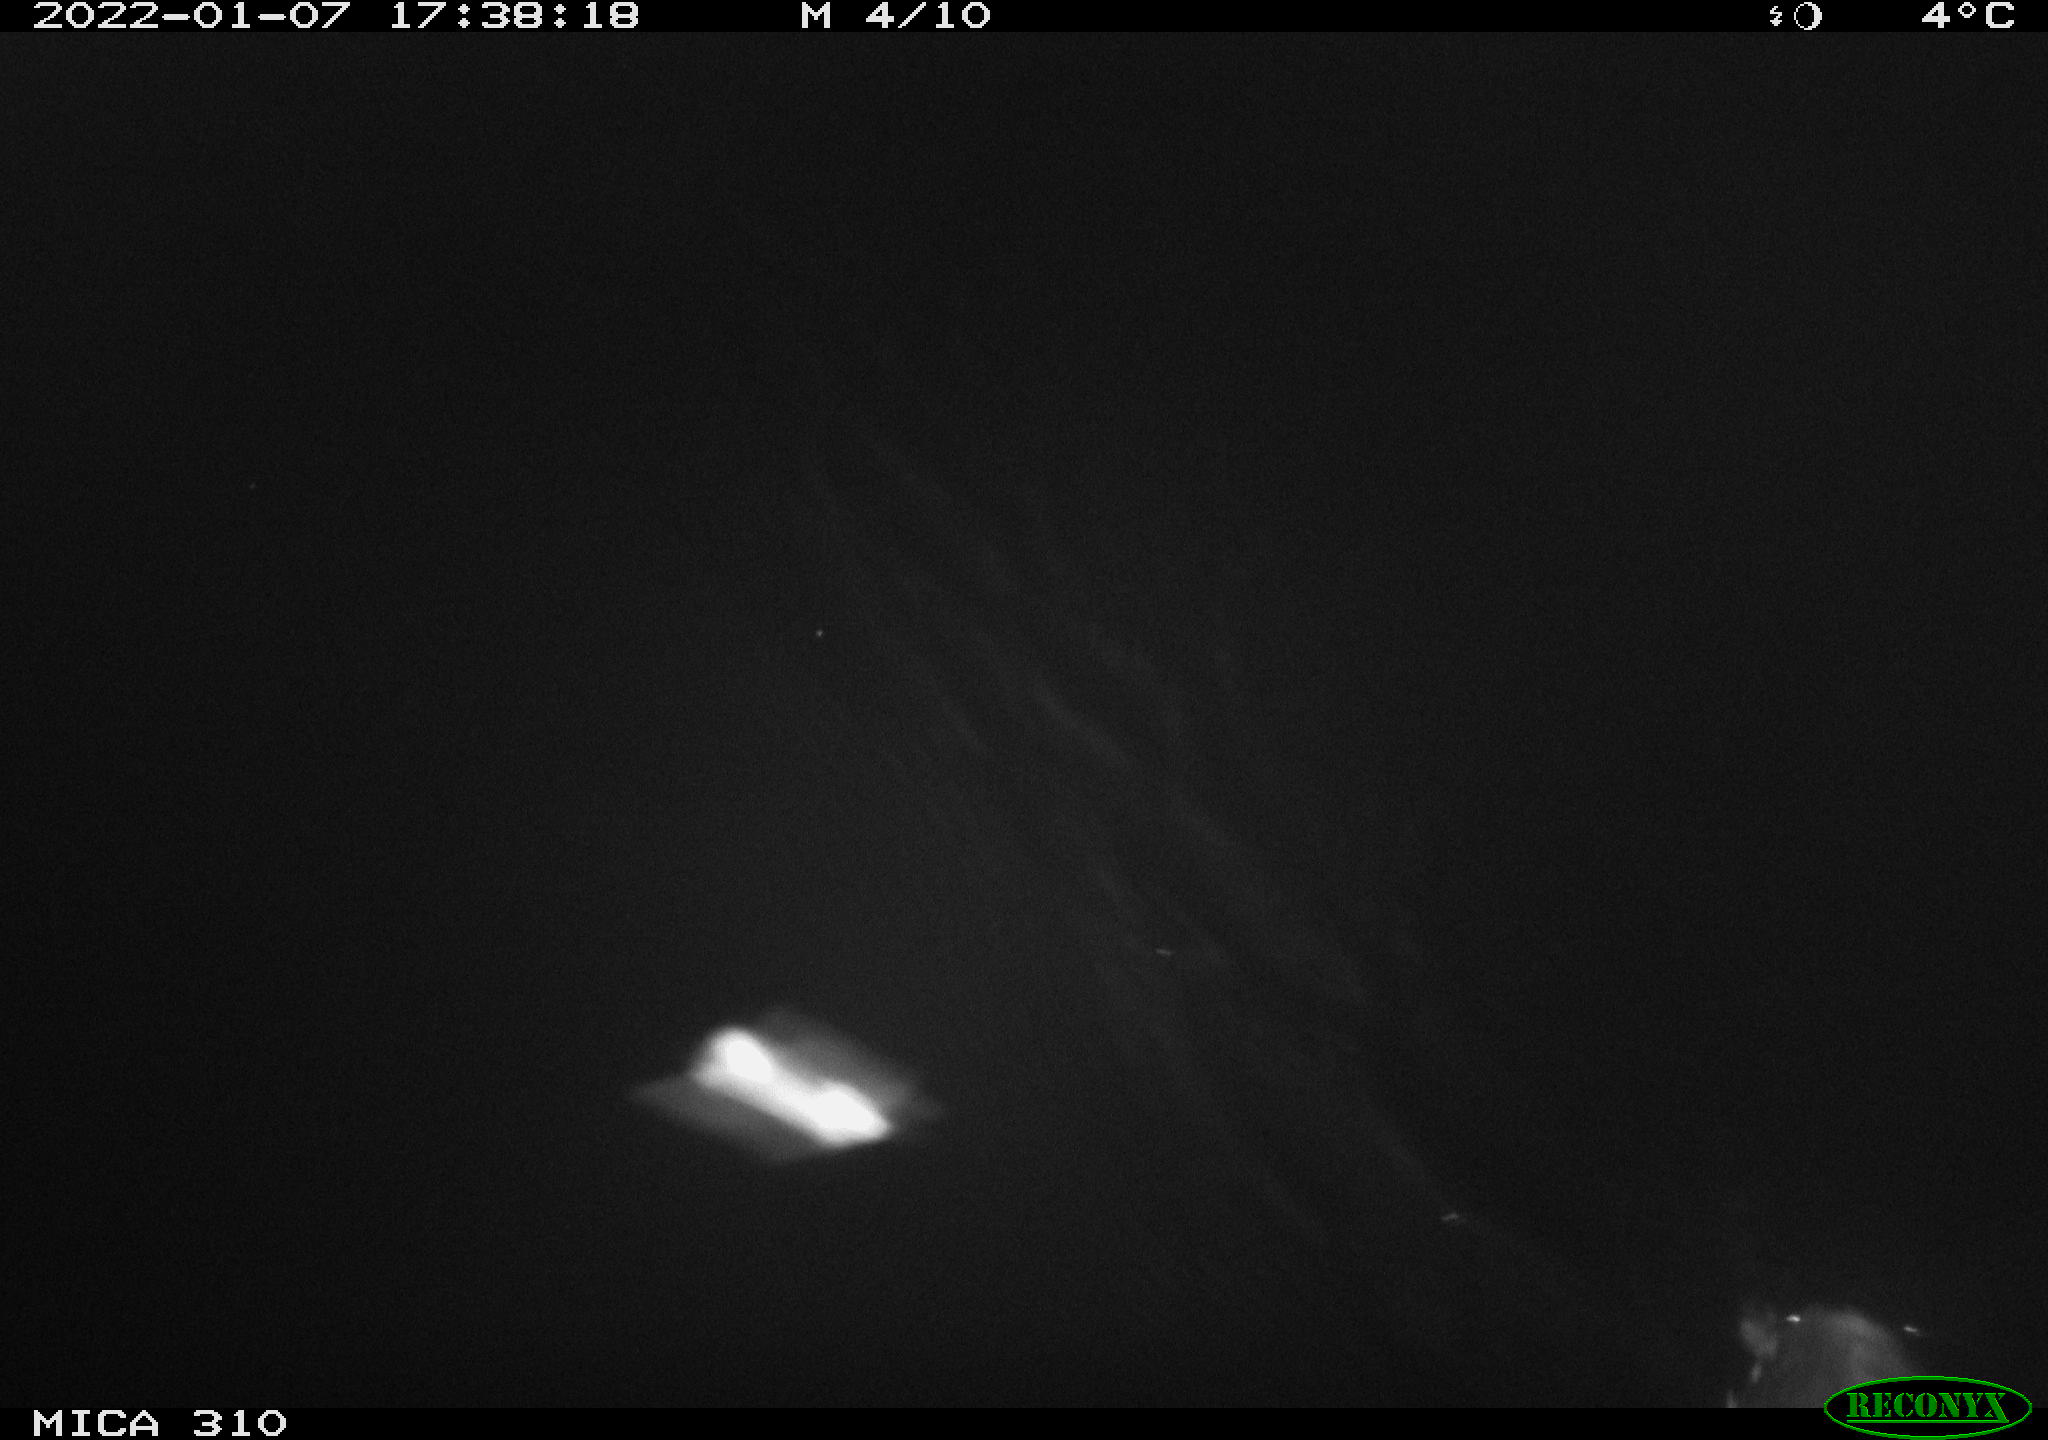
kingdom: Animalia
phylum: Chordata
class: Aves
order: Anseriformes
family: Anatidae
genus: Anas
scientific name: Anas
